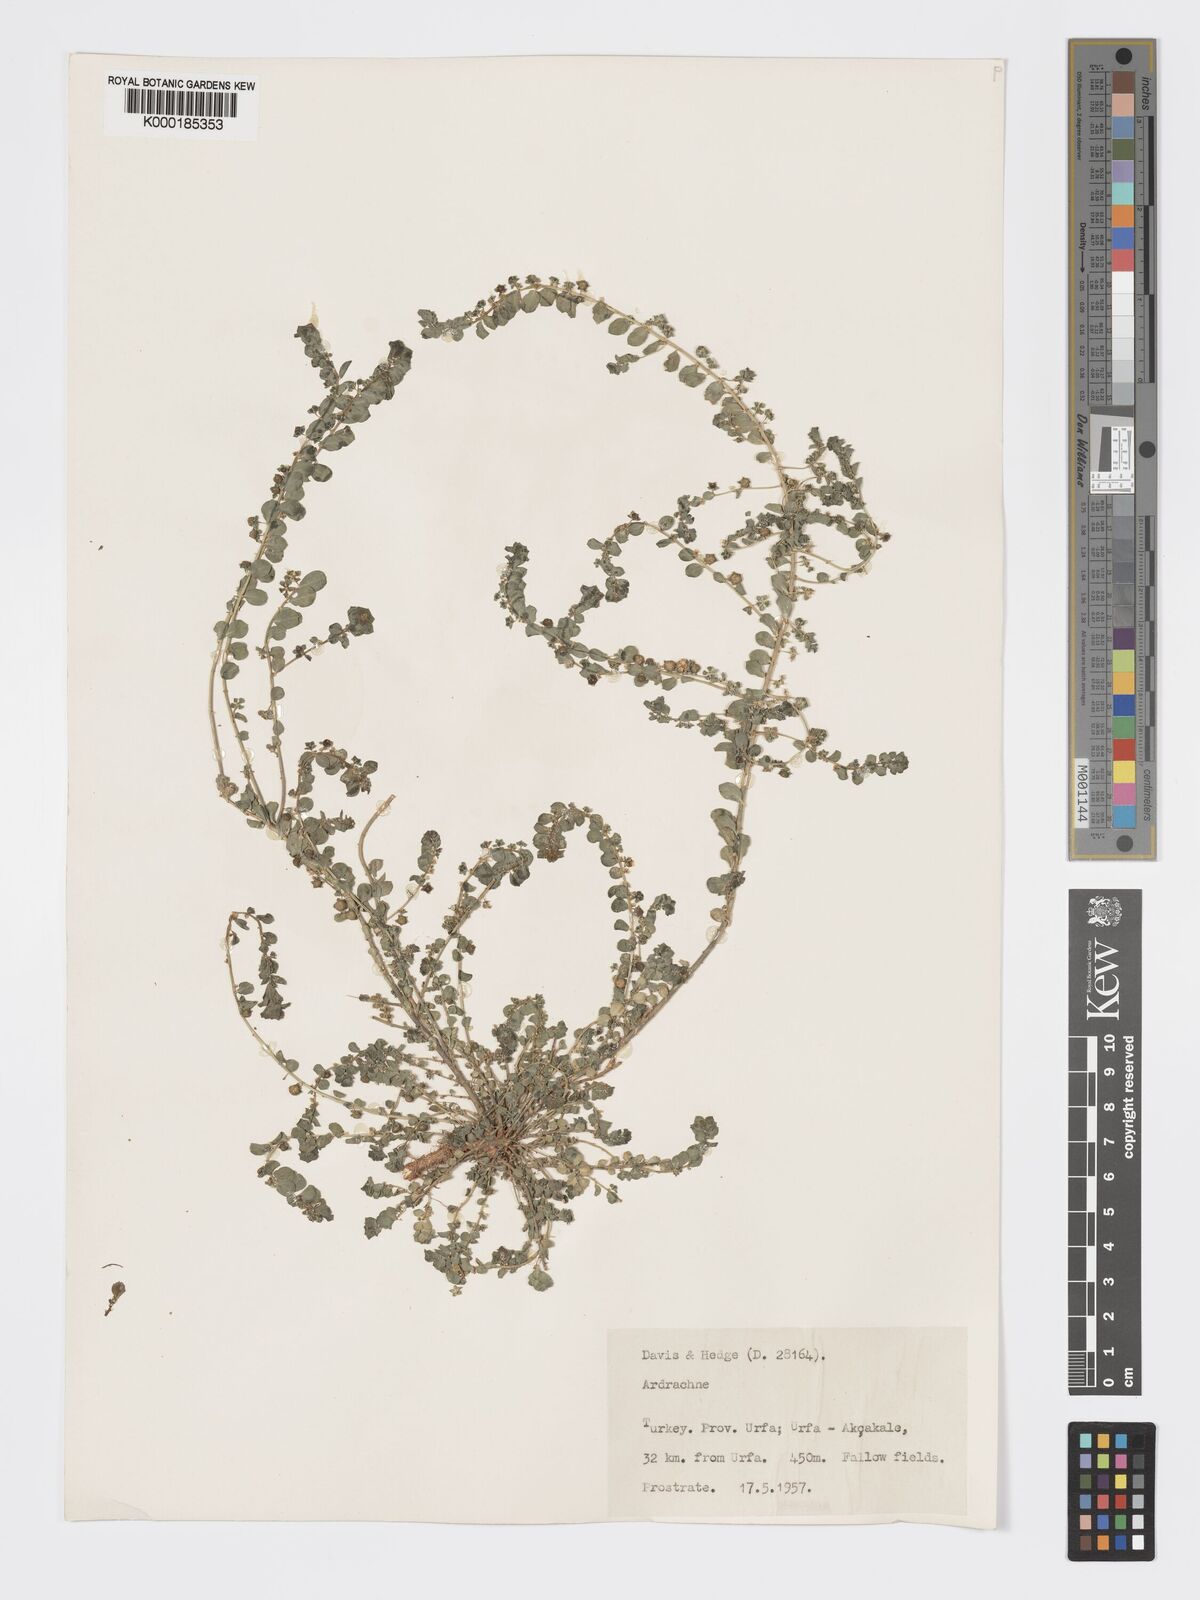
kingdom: Plantae
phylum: Tracheophyta
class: Magnoliopsida
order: Malpighiales
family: Phyllanthaceae
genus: Andrachne
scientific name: Andrachne telephioides
